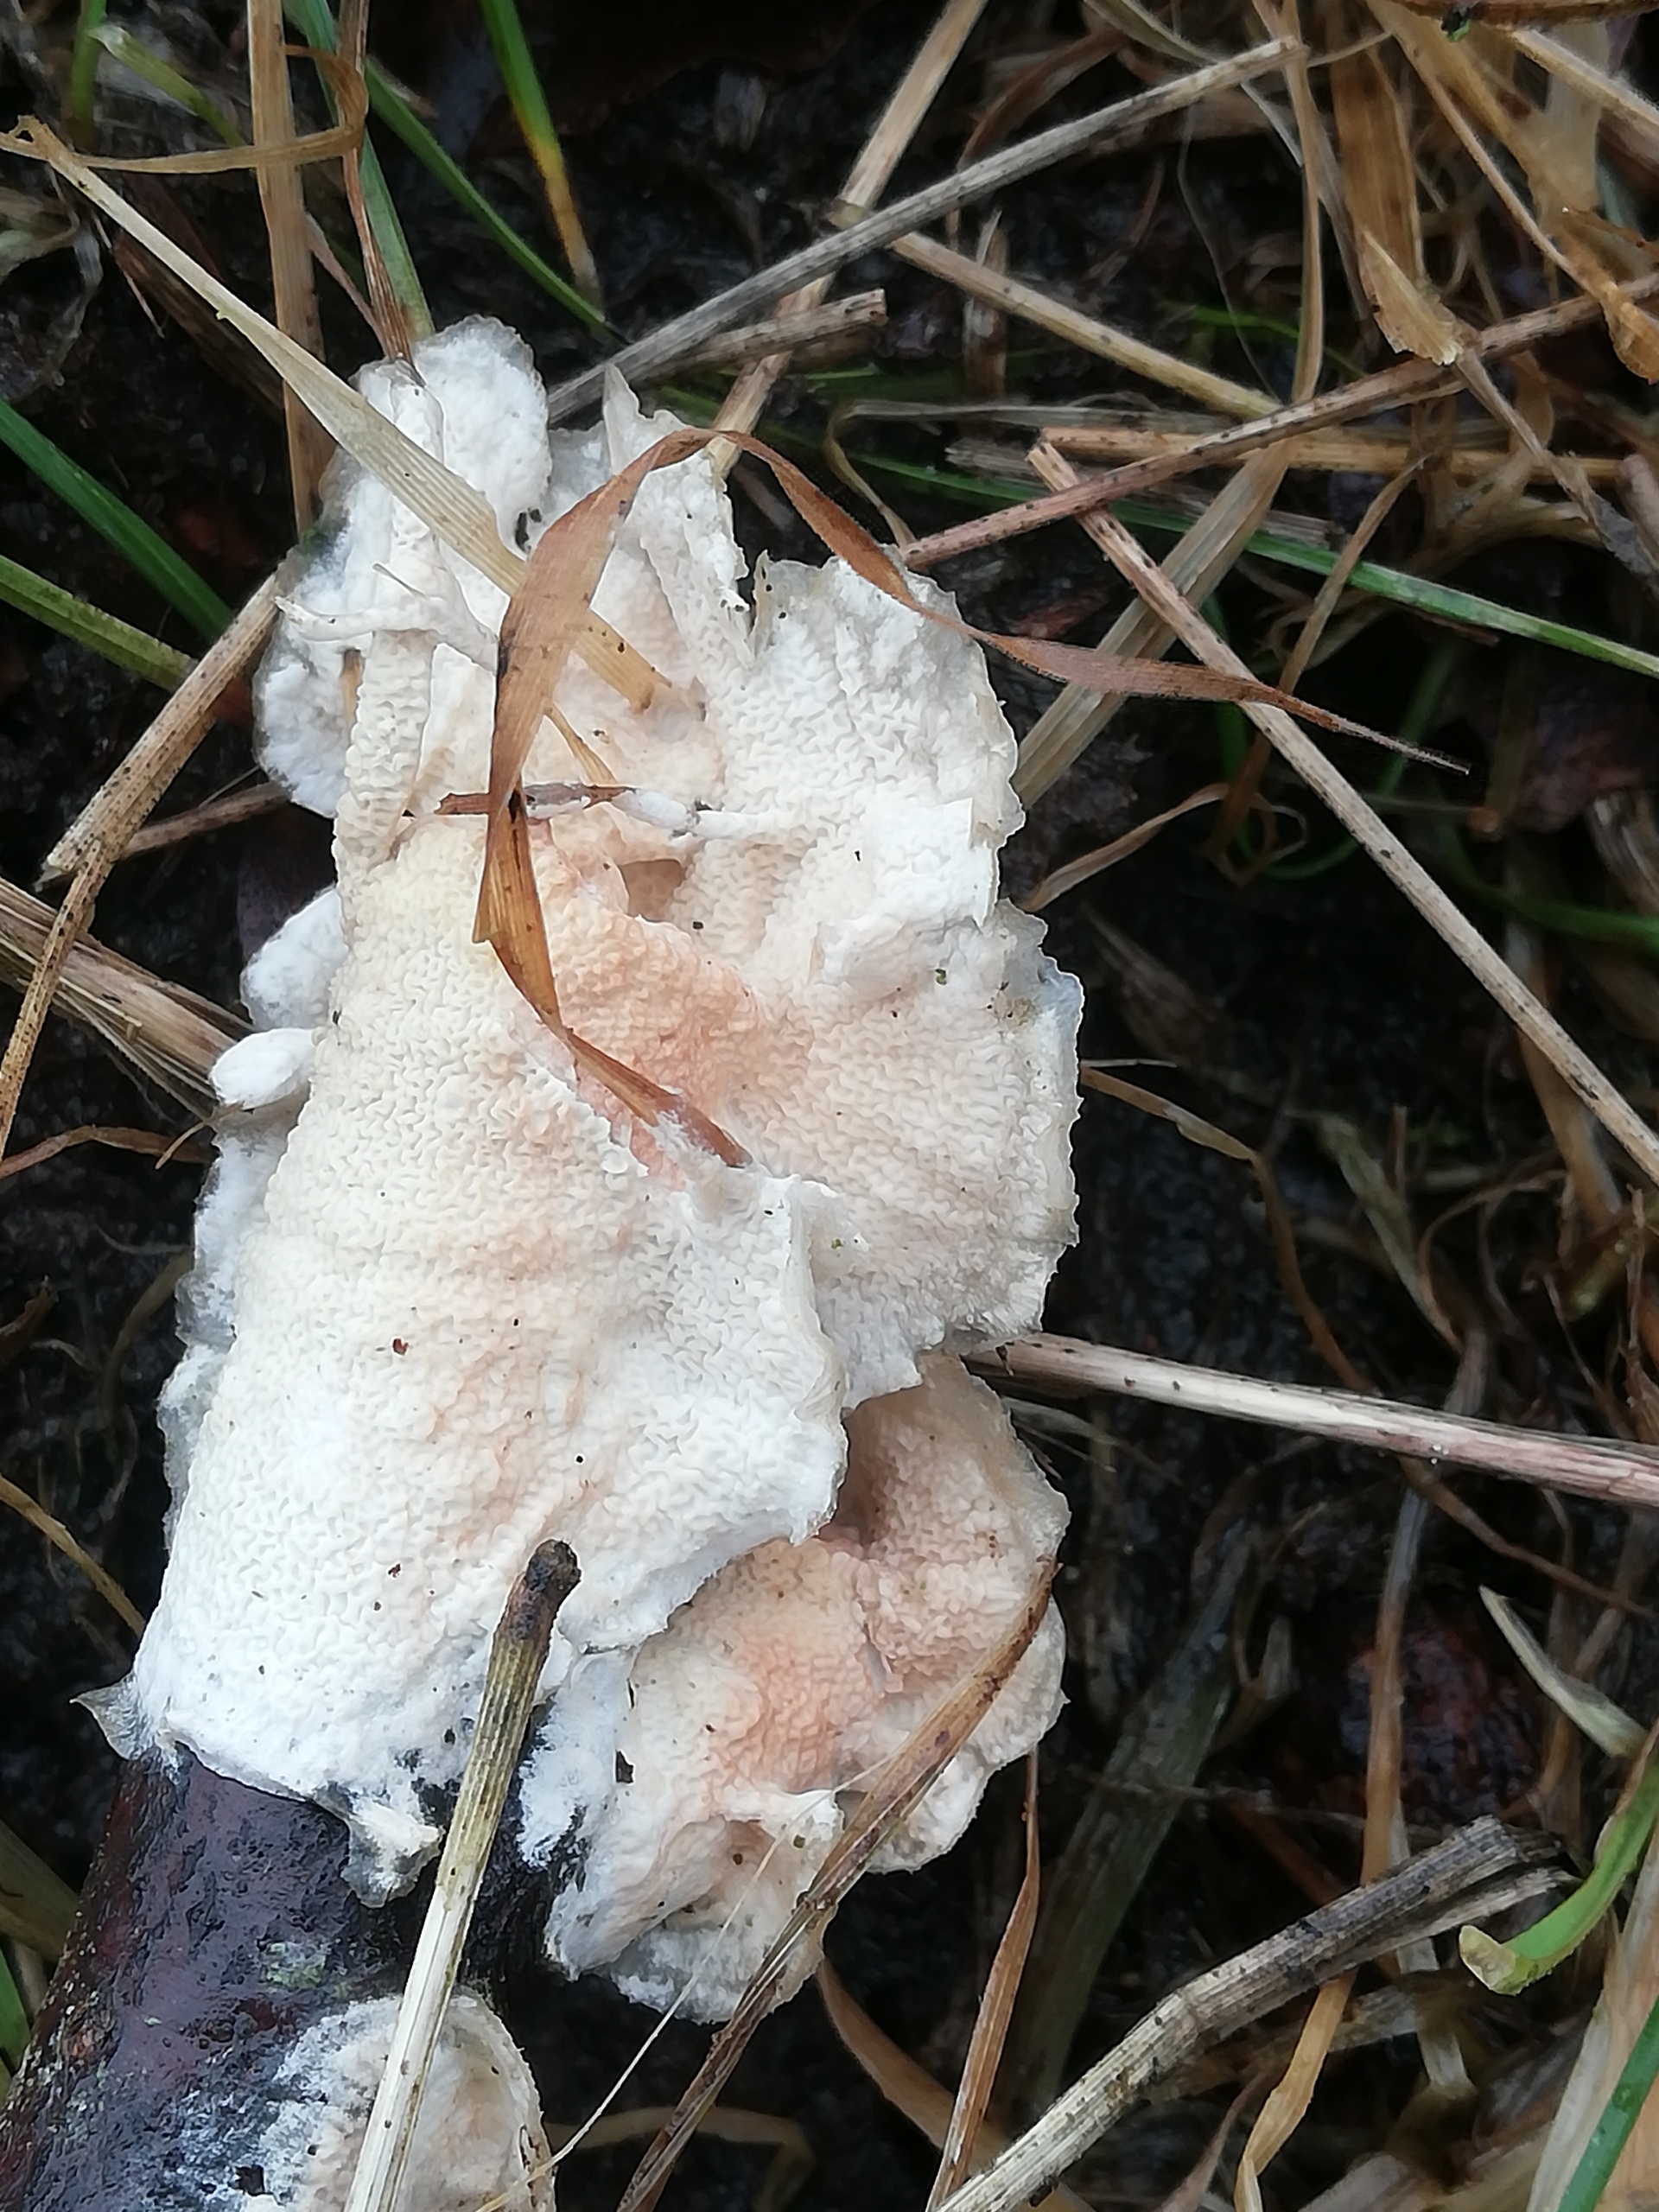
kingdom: Fungi
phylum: Basidiomycota
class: Agaricomycetes
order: Polyporales
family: Meruliaceae
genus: Phlebia
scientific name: Phlebia tremellosa
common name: Bævrende åresvamp
